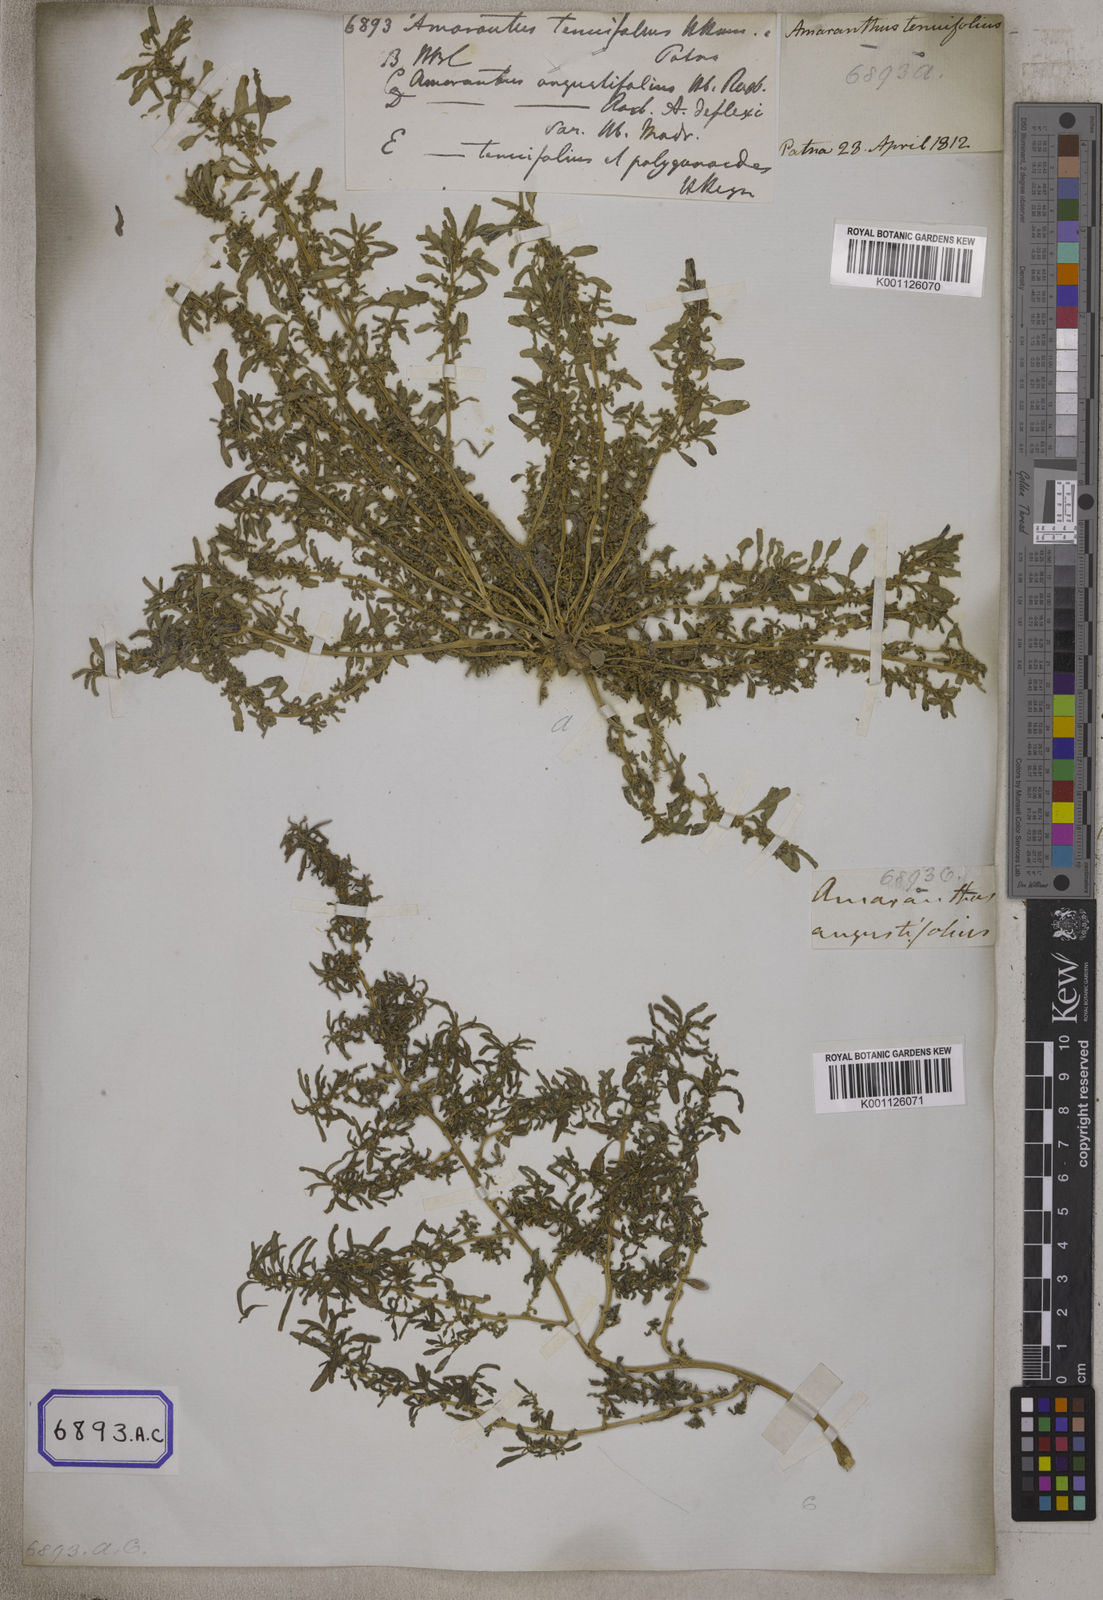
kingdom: Plantae
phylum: Tracheophyta
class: Magnoliopsida
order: Caryophyllales
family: Amaranthaceae
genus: Amaranthus
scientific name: Amaranthus
